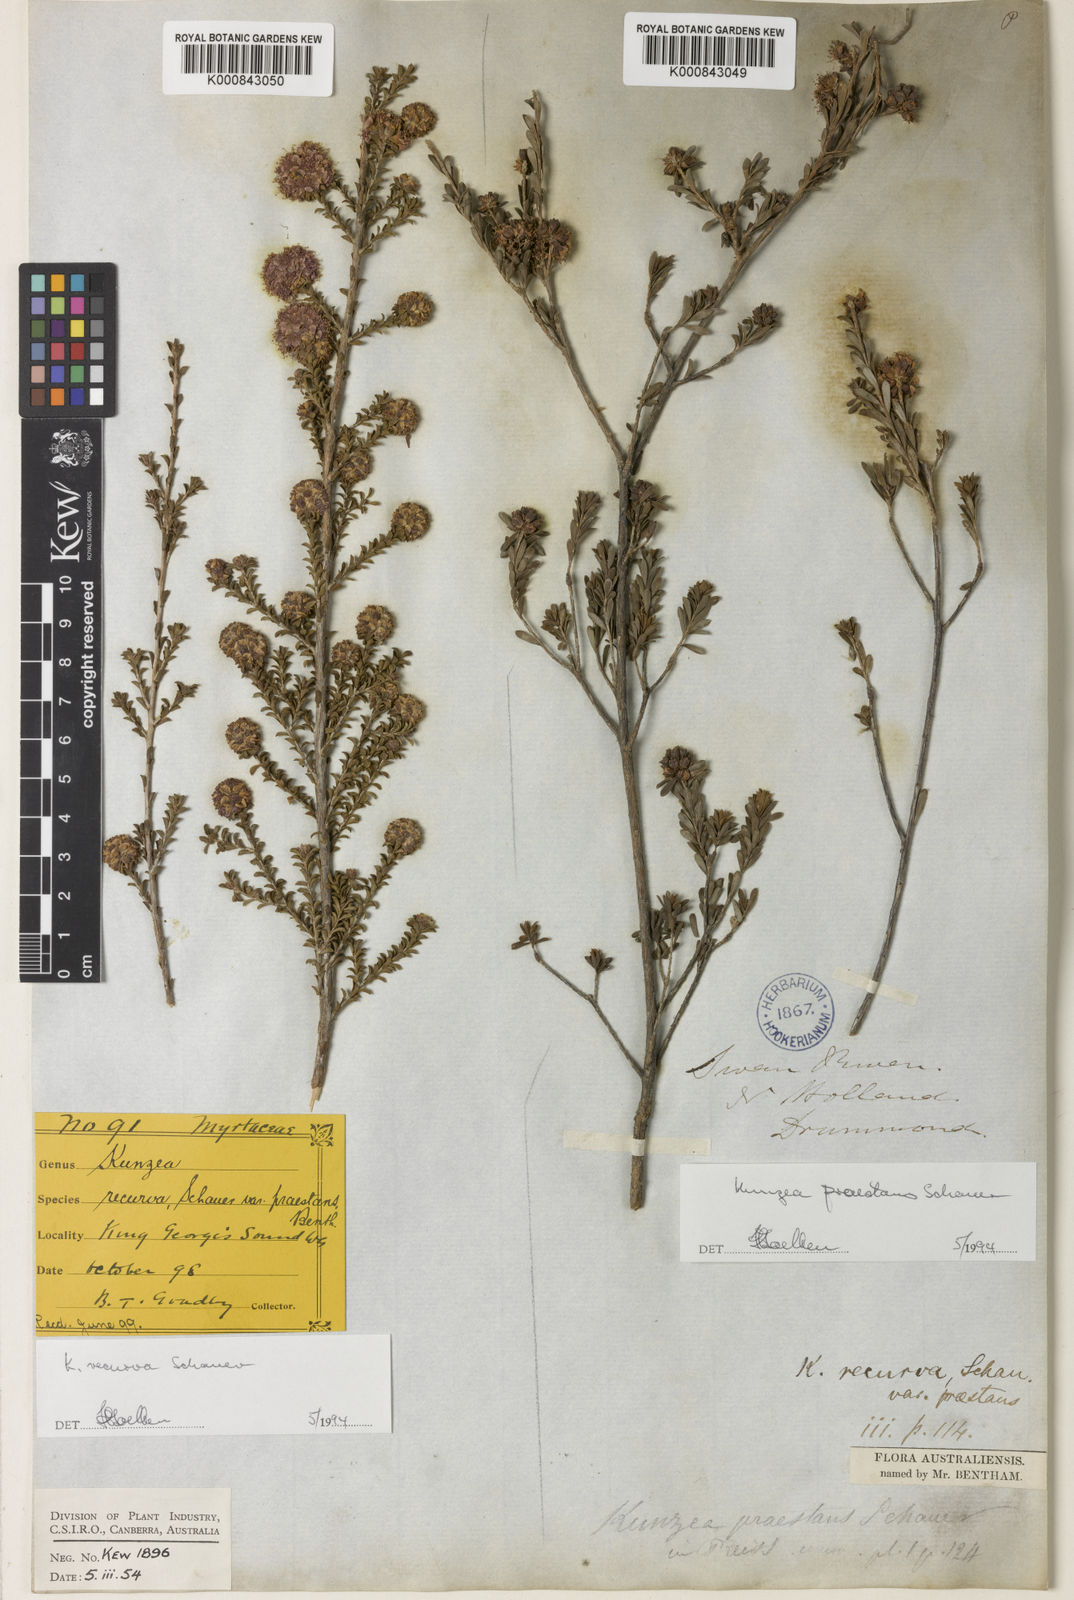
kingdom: Plantae
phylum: Tracheophyta
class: Magnoliopsida
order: Myrtales
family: Myrtaceae
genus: Kunzea
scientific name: Kunzea praestans
